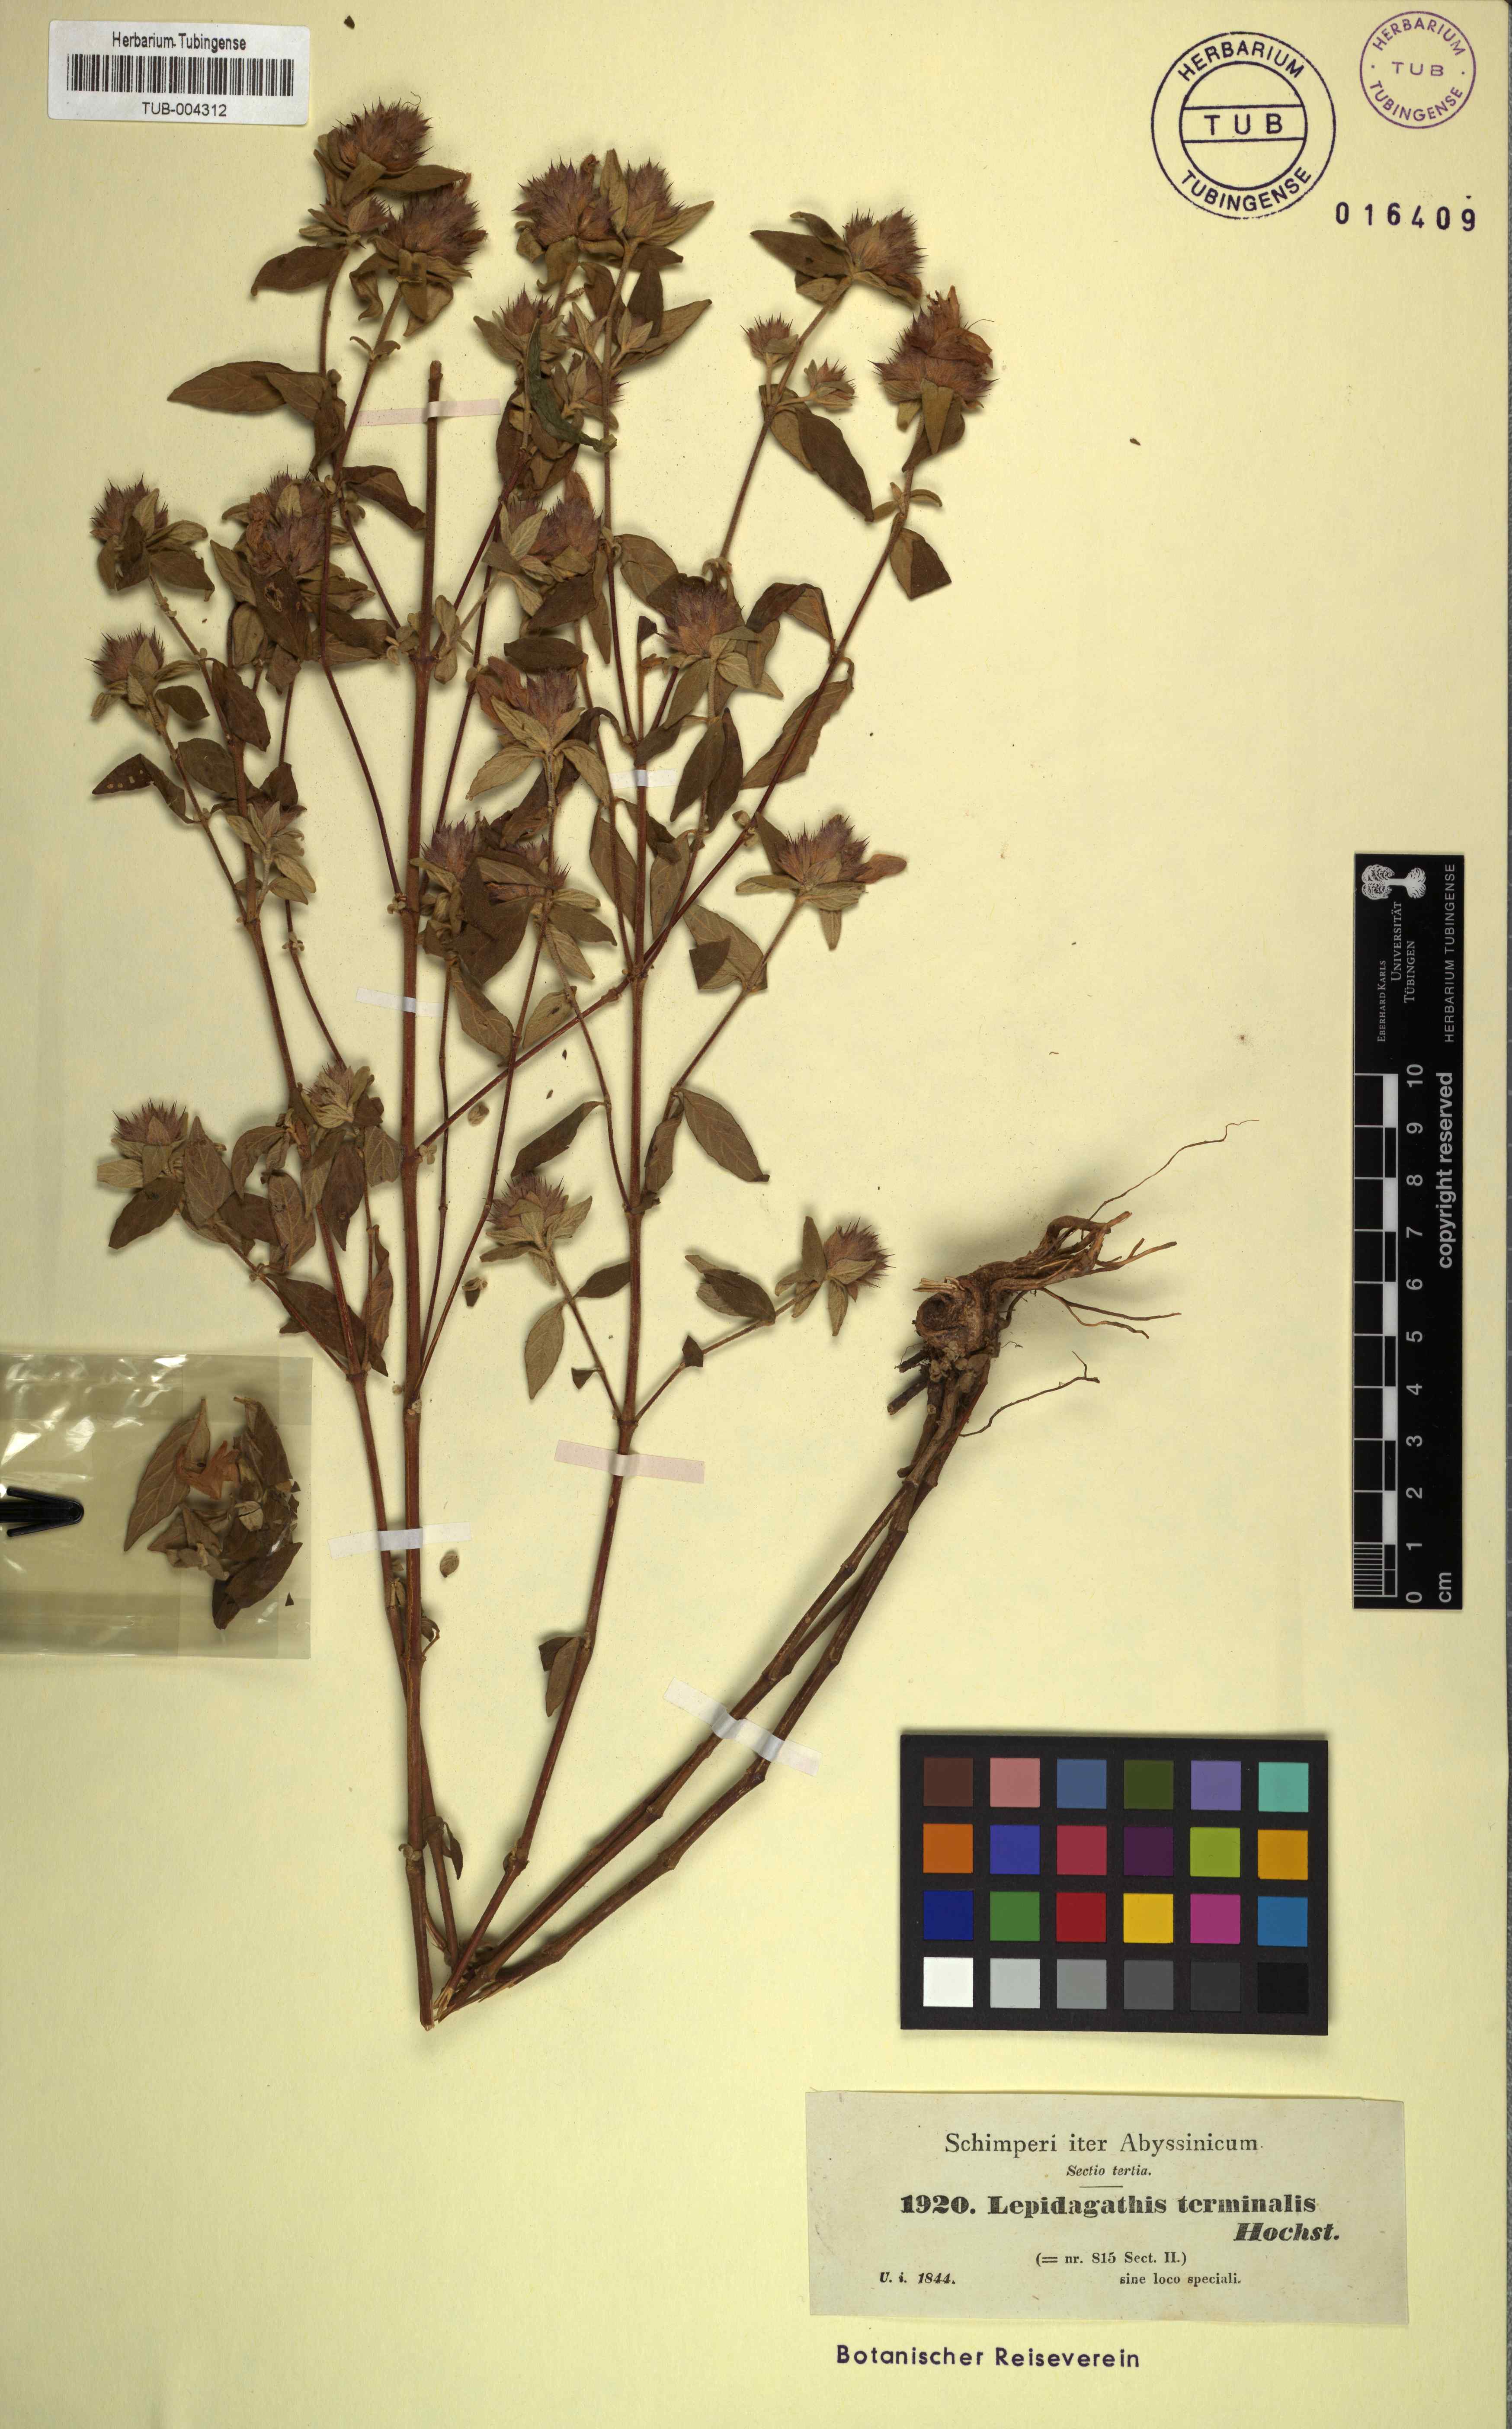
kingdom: Plantae
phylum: Tracheophyta
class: Magnoliopsida
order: Lamiales
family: Acanthaceae
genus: Lepidagathis
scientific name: Lepidagathis scariosa
